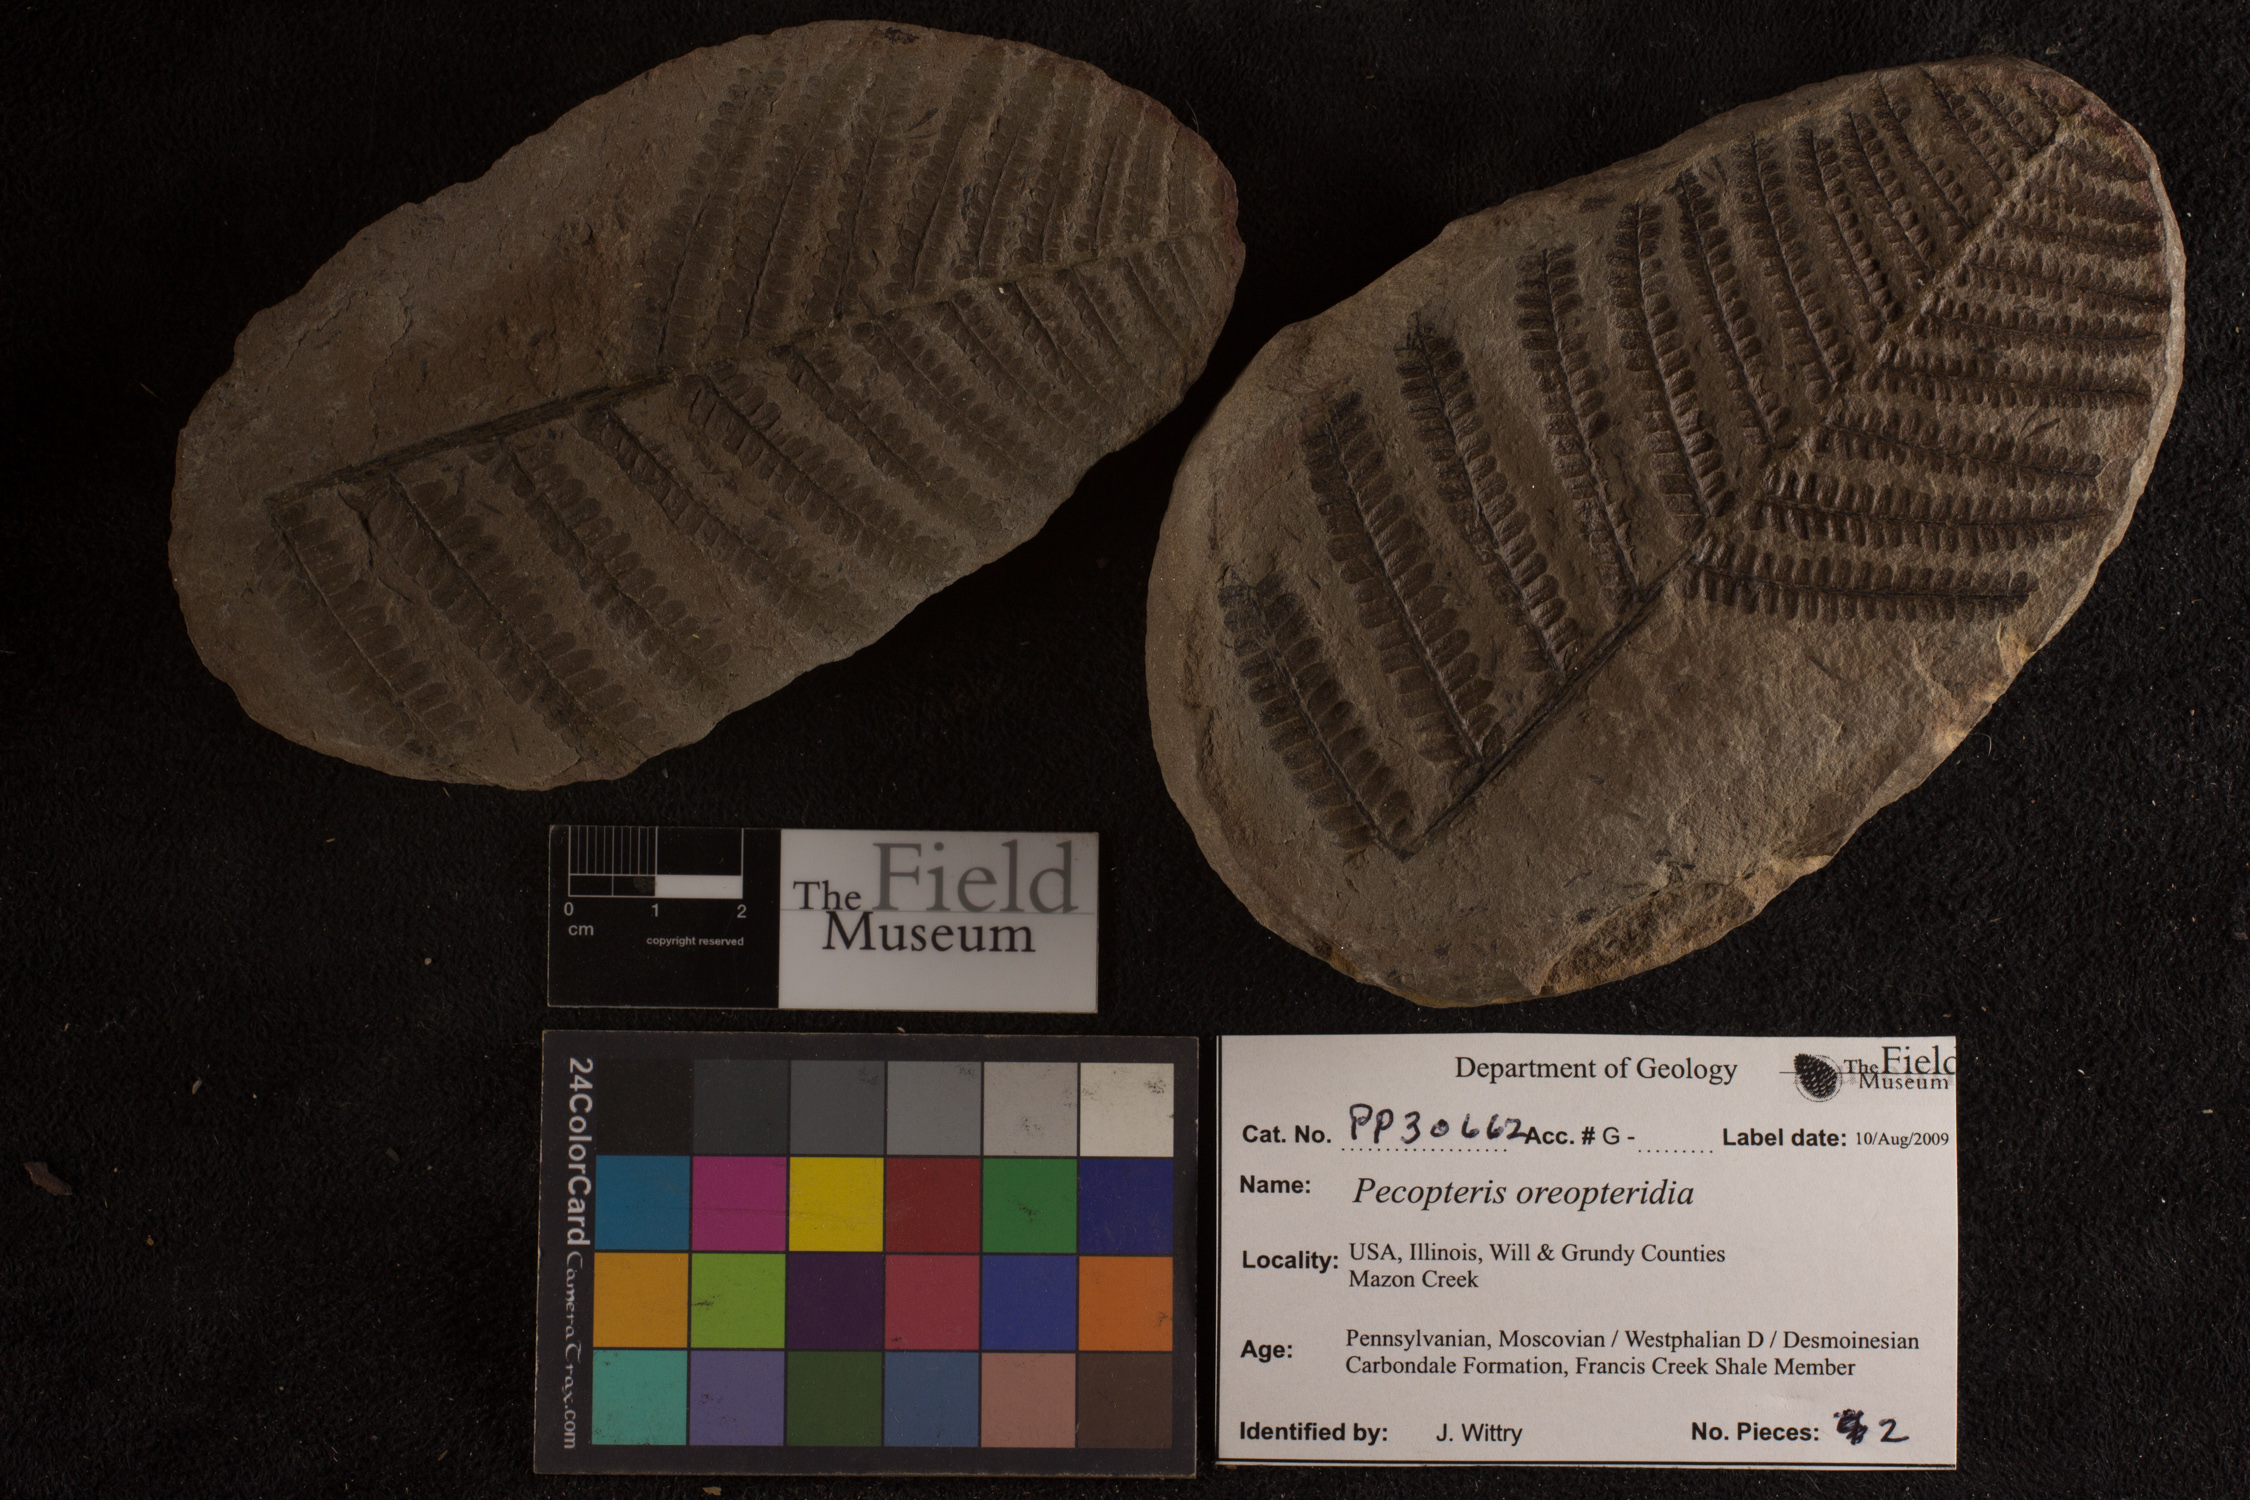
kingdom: Plantae
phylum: Tracheophyta
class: Polypodiopsida
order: Marattiales
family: Asterothecaceae
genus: Pecopteris
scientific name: Pecopteris
